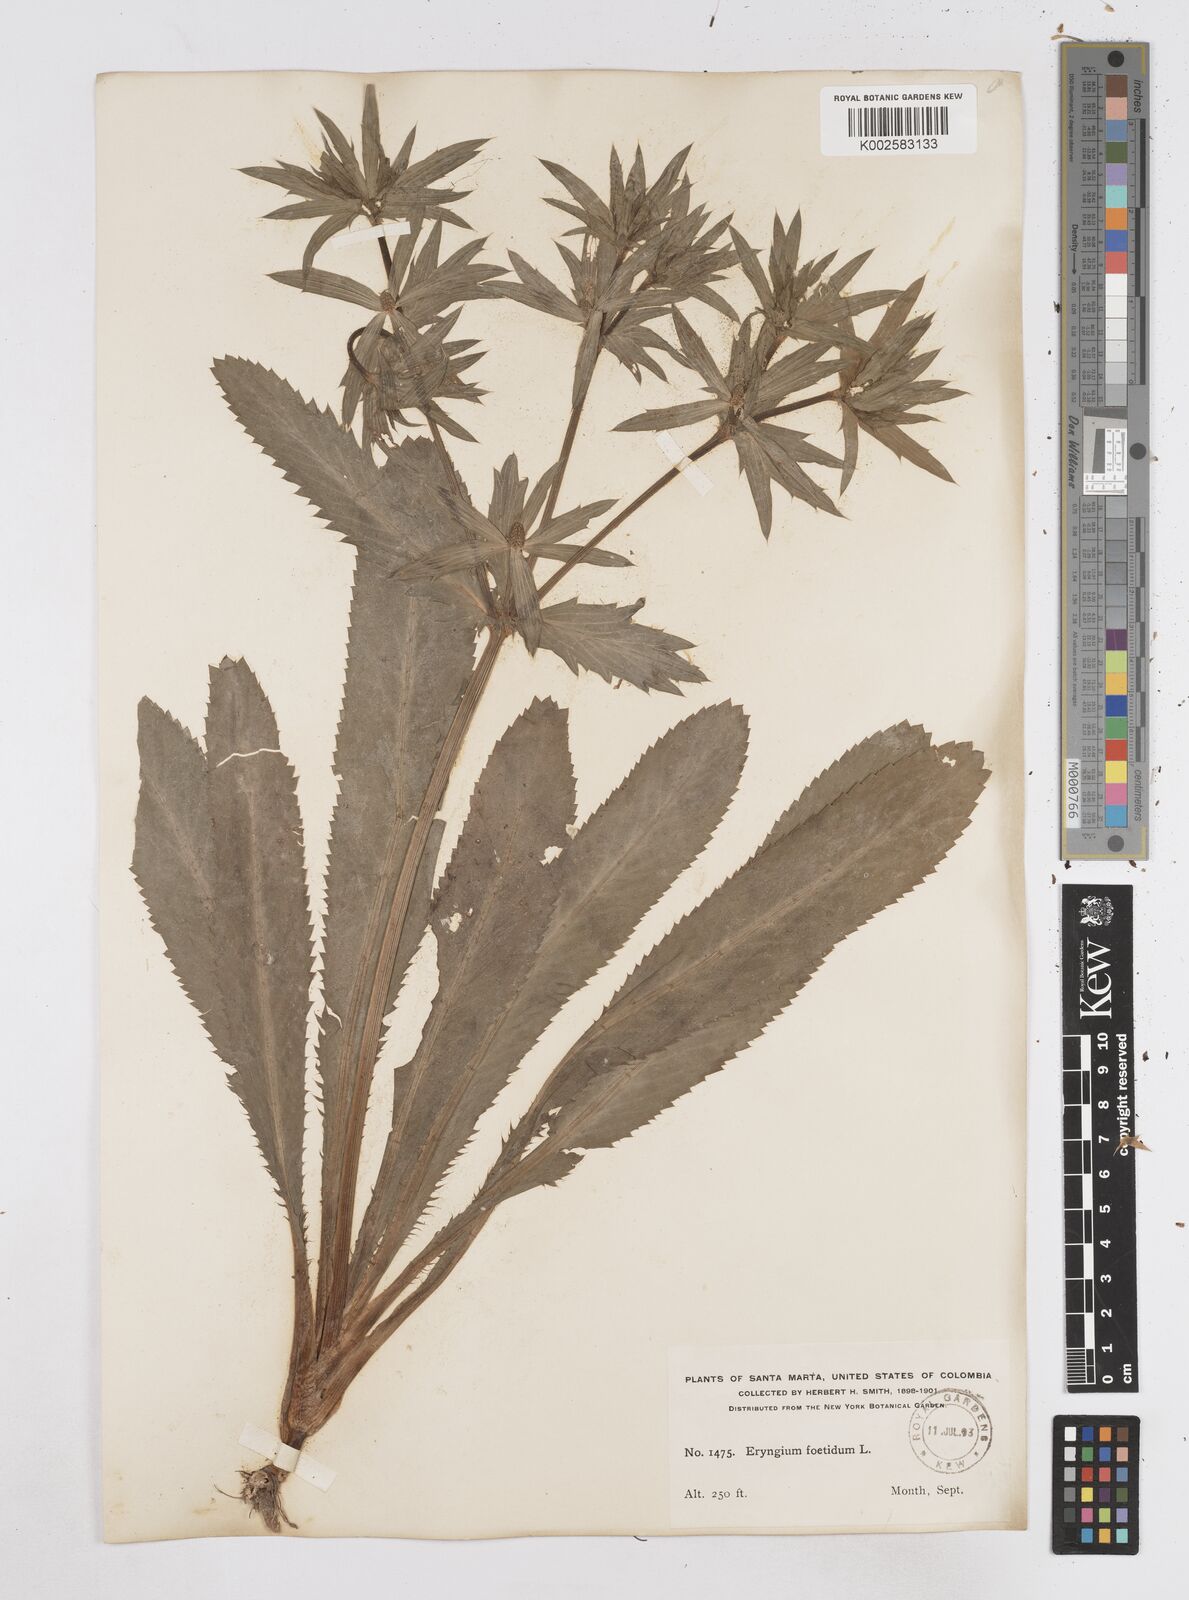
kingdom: Plantae
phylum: Tracheophyta
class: Magnoliopsida
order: Apiales
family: Apiaceae
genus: Eryngium
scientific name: Eryngium foetidum
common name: Fitweed
